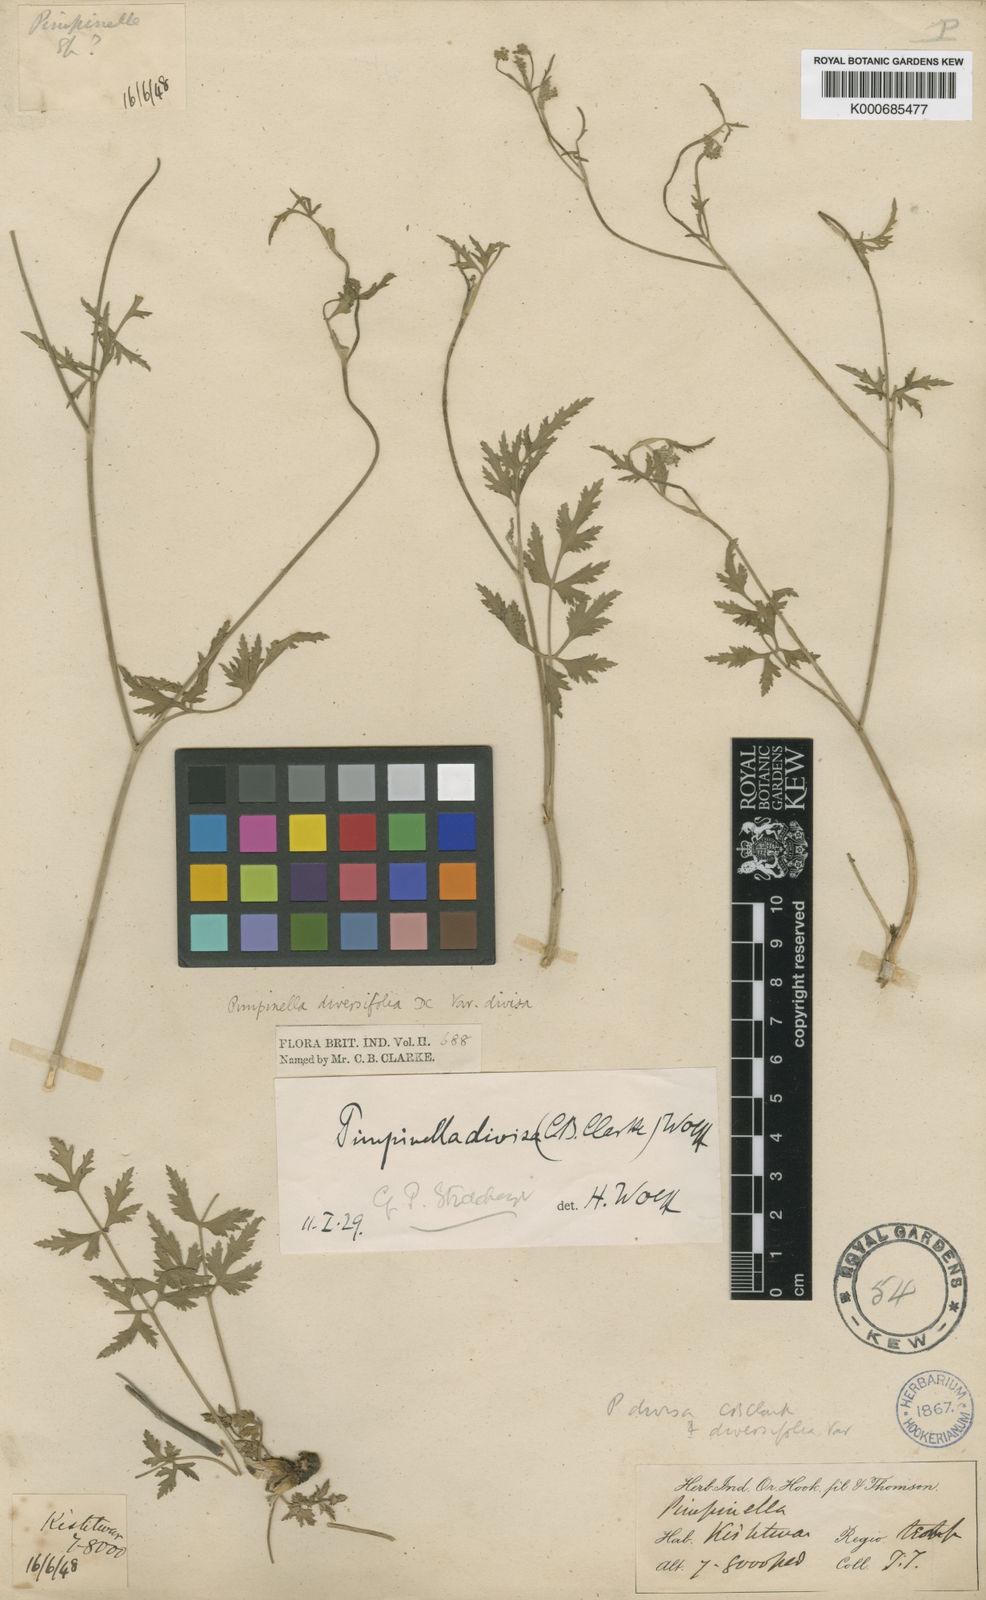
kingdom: Plantae
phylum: Tracheophyta
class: Magnoliopsida
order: Apiales
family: Apiaceae
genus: Pimpinella
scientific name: Pimpinella
